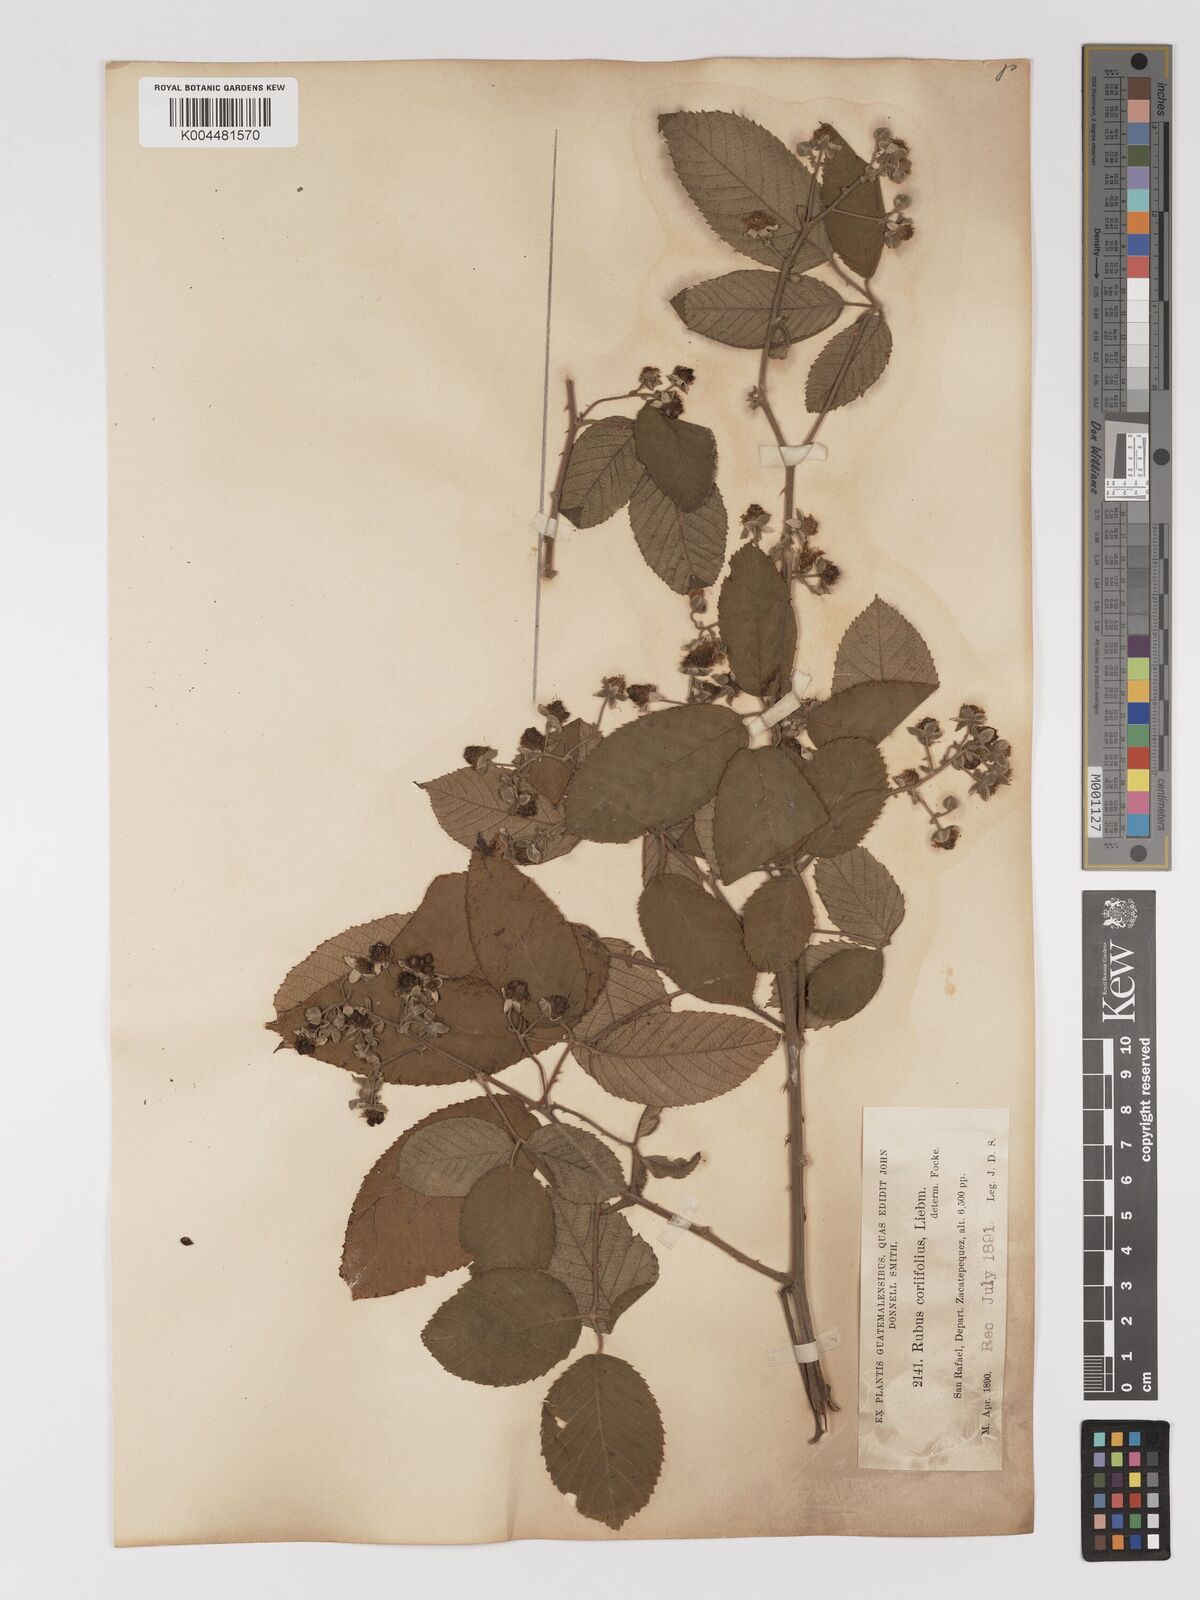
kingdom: Plantae
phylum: Tracheophyta
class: Magnoliopsida
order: Rosales
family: Rosaceae
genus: Rubus
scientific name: Rubus coriifolius
